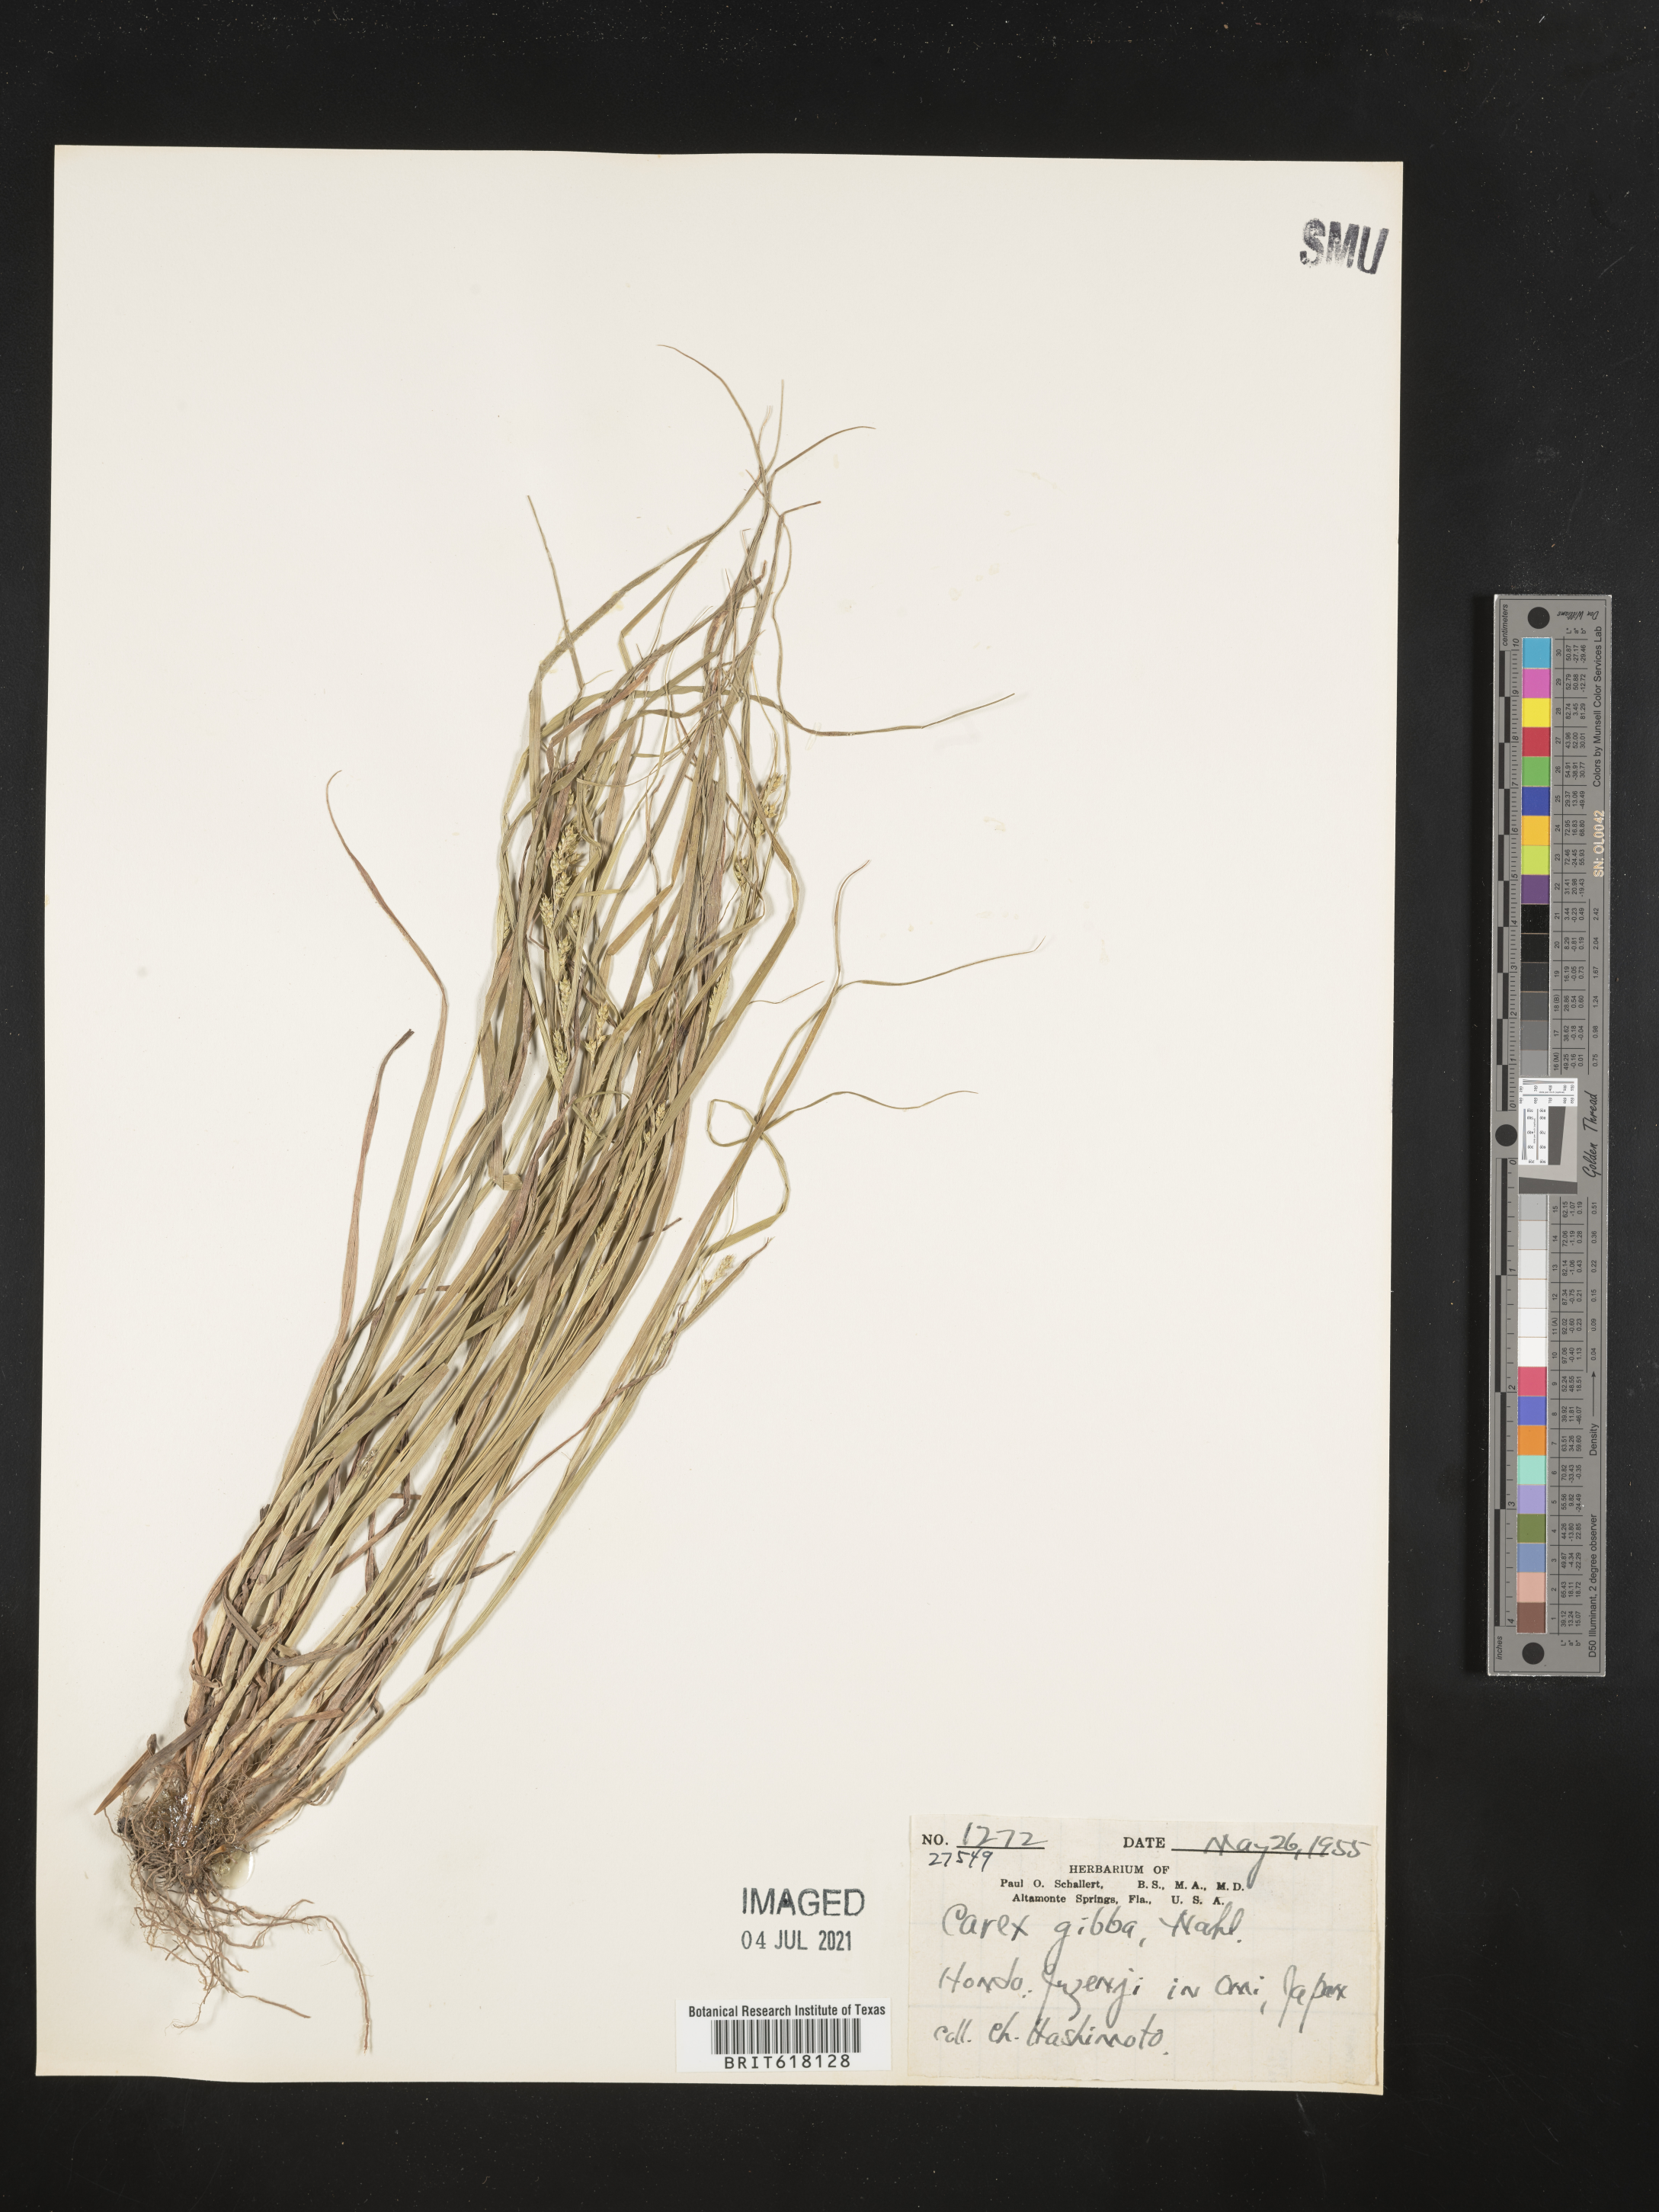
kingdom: Plantae
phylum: Tracheophyta
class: Liliopsida
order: Poales
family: Cyperaceae
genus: Carex
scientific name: Carex gibba
